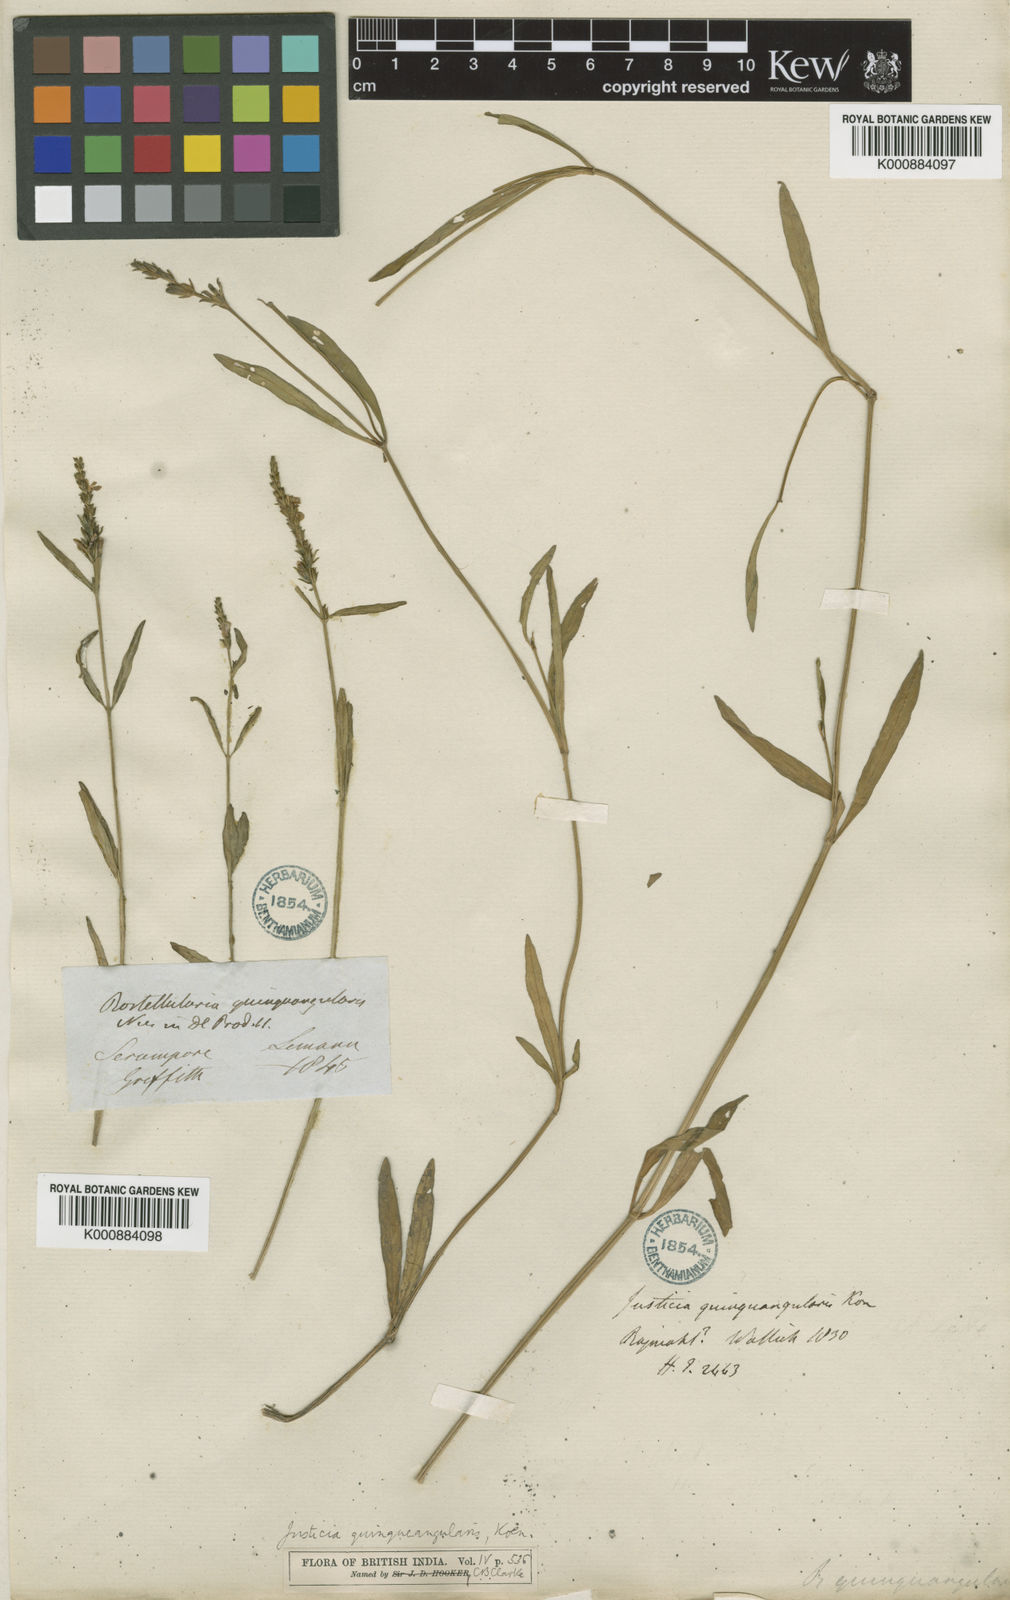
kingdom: Plantae
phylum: Tracheophyta
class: Magnoliopsida
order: Lamiales
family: Acanthaceae
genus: Rostellularia
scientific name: Rostellularia quinquangularis
